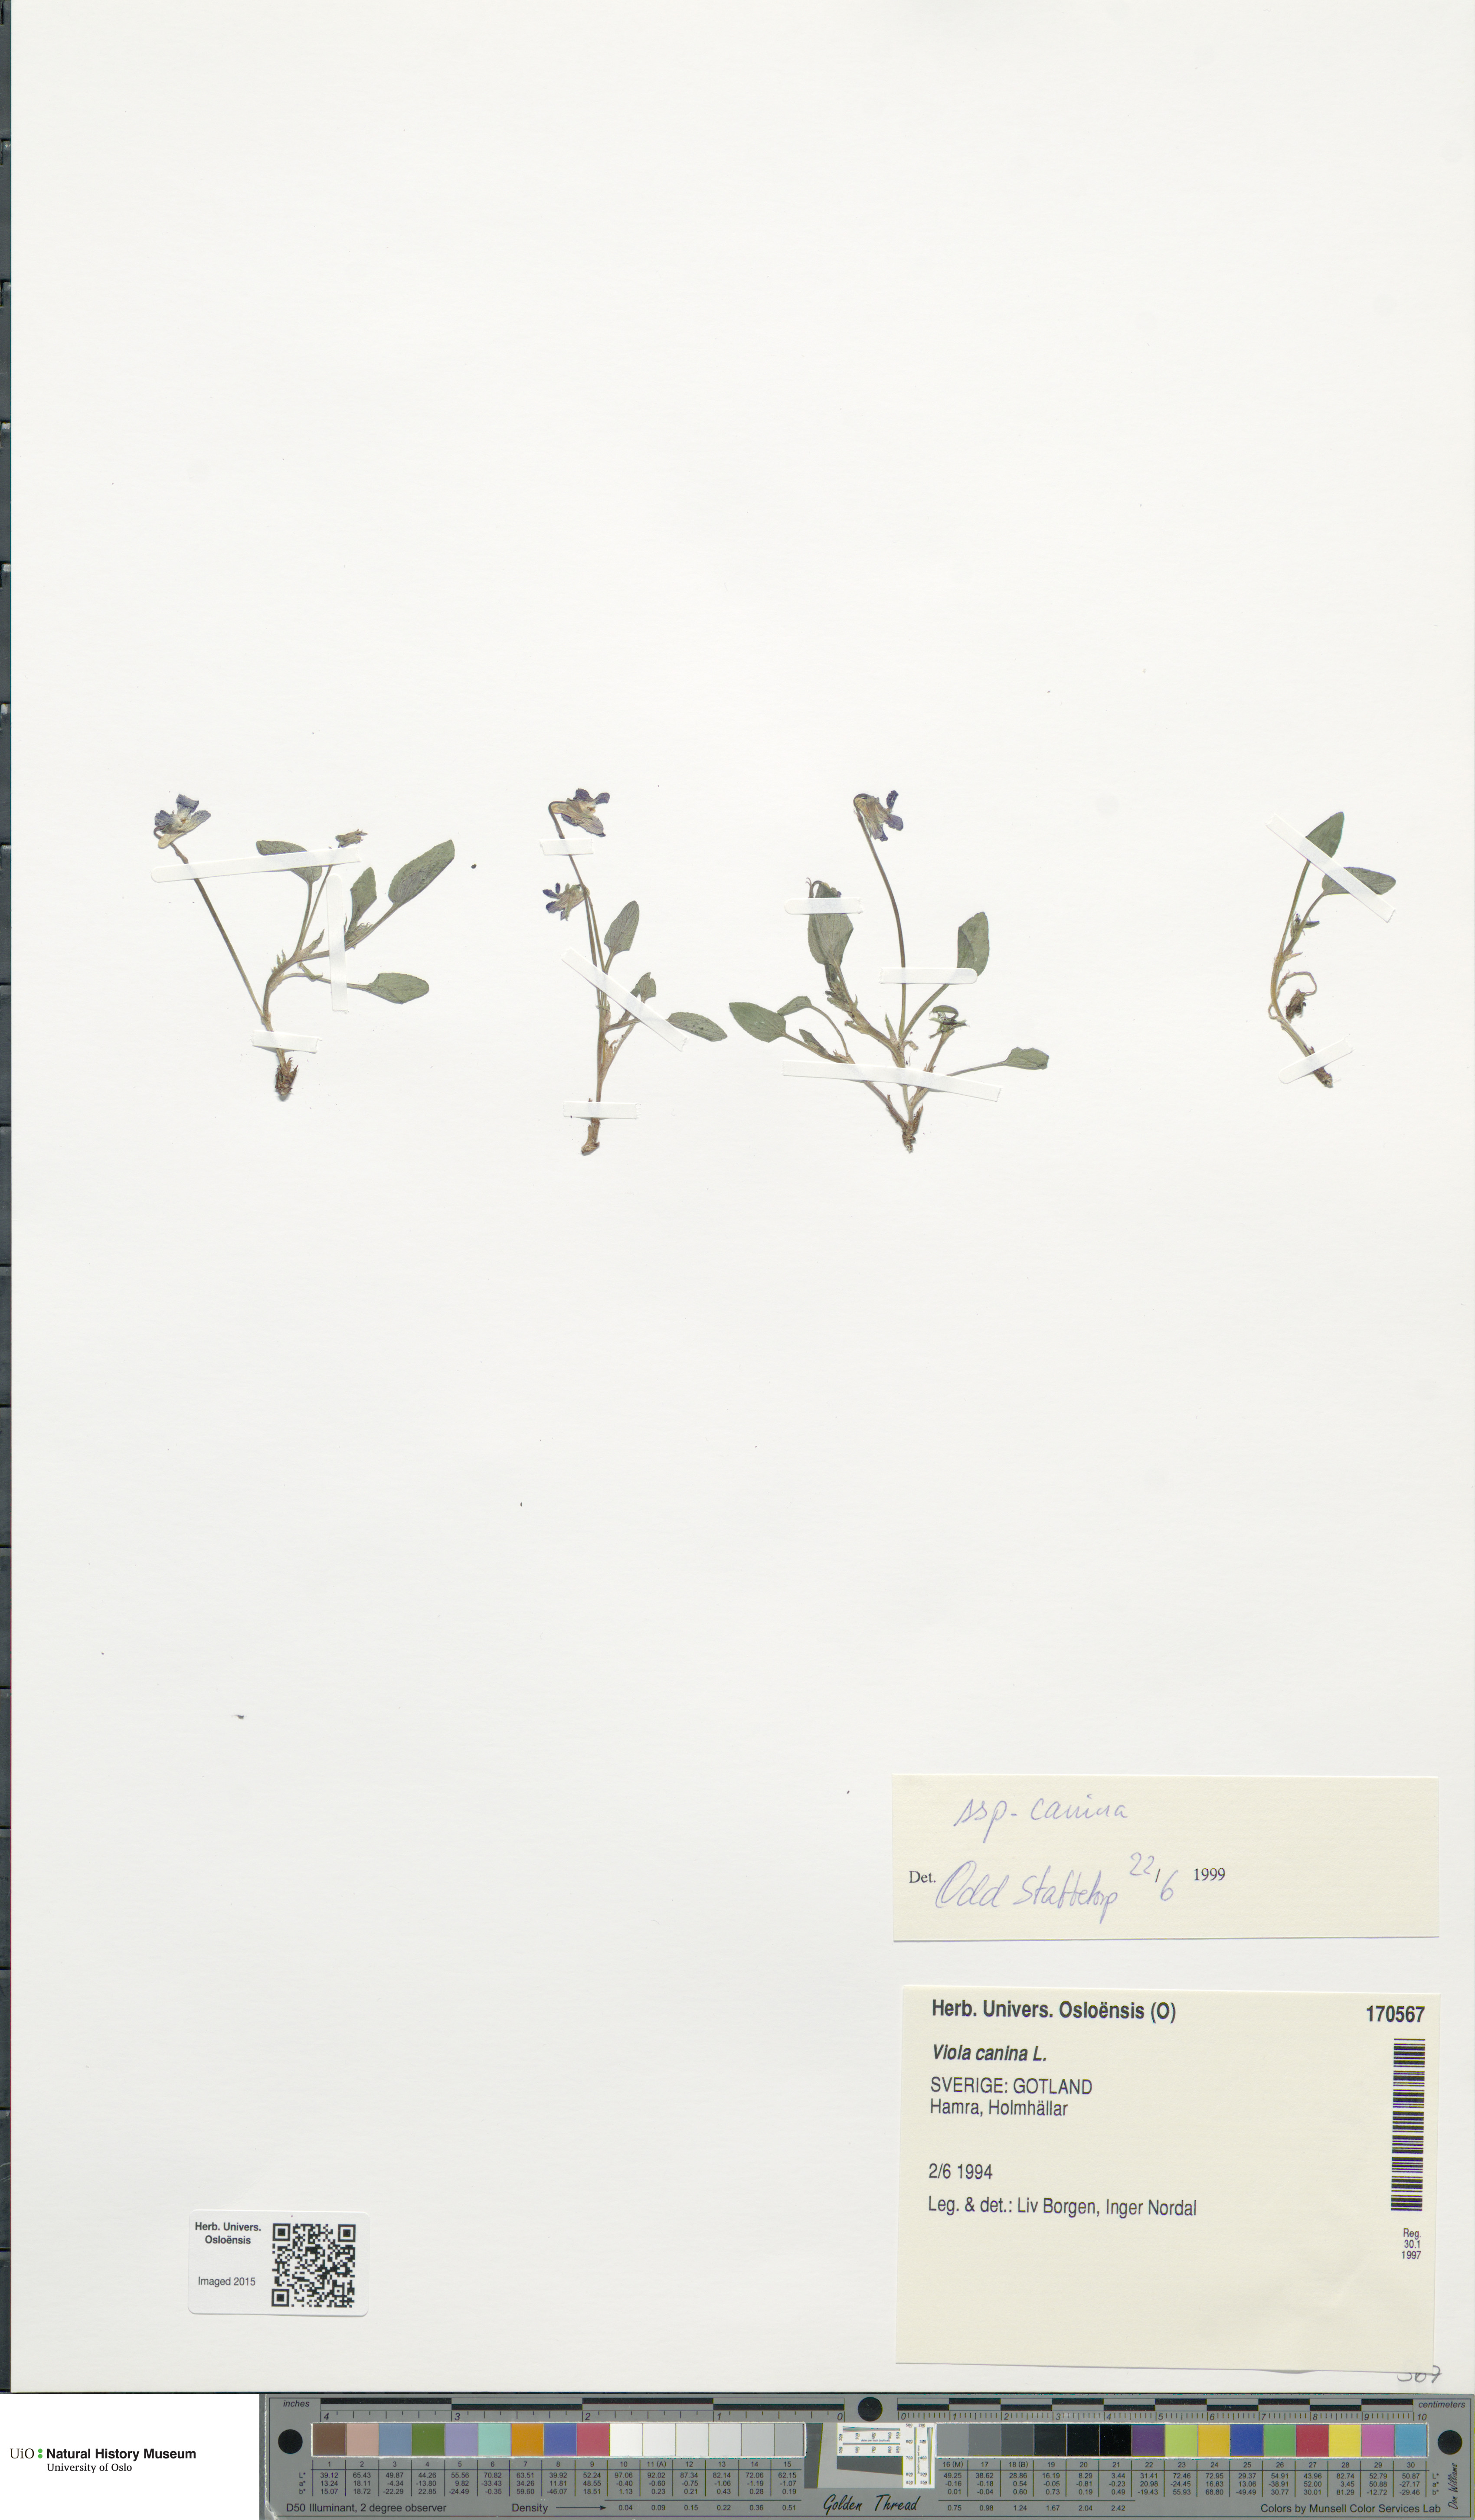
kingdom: Plantae
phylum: Tracheophyta
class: Magnoliopsida
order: Malpighiales
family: Violaceae
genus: Viola
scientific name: Viola canina
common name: Heath dog-violet
